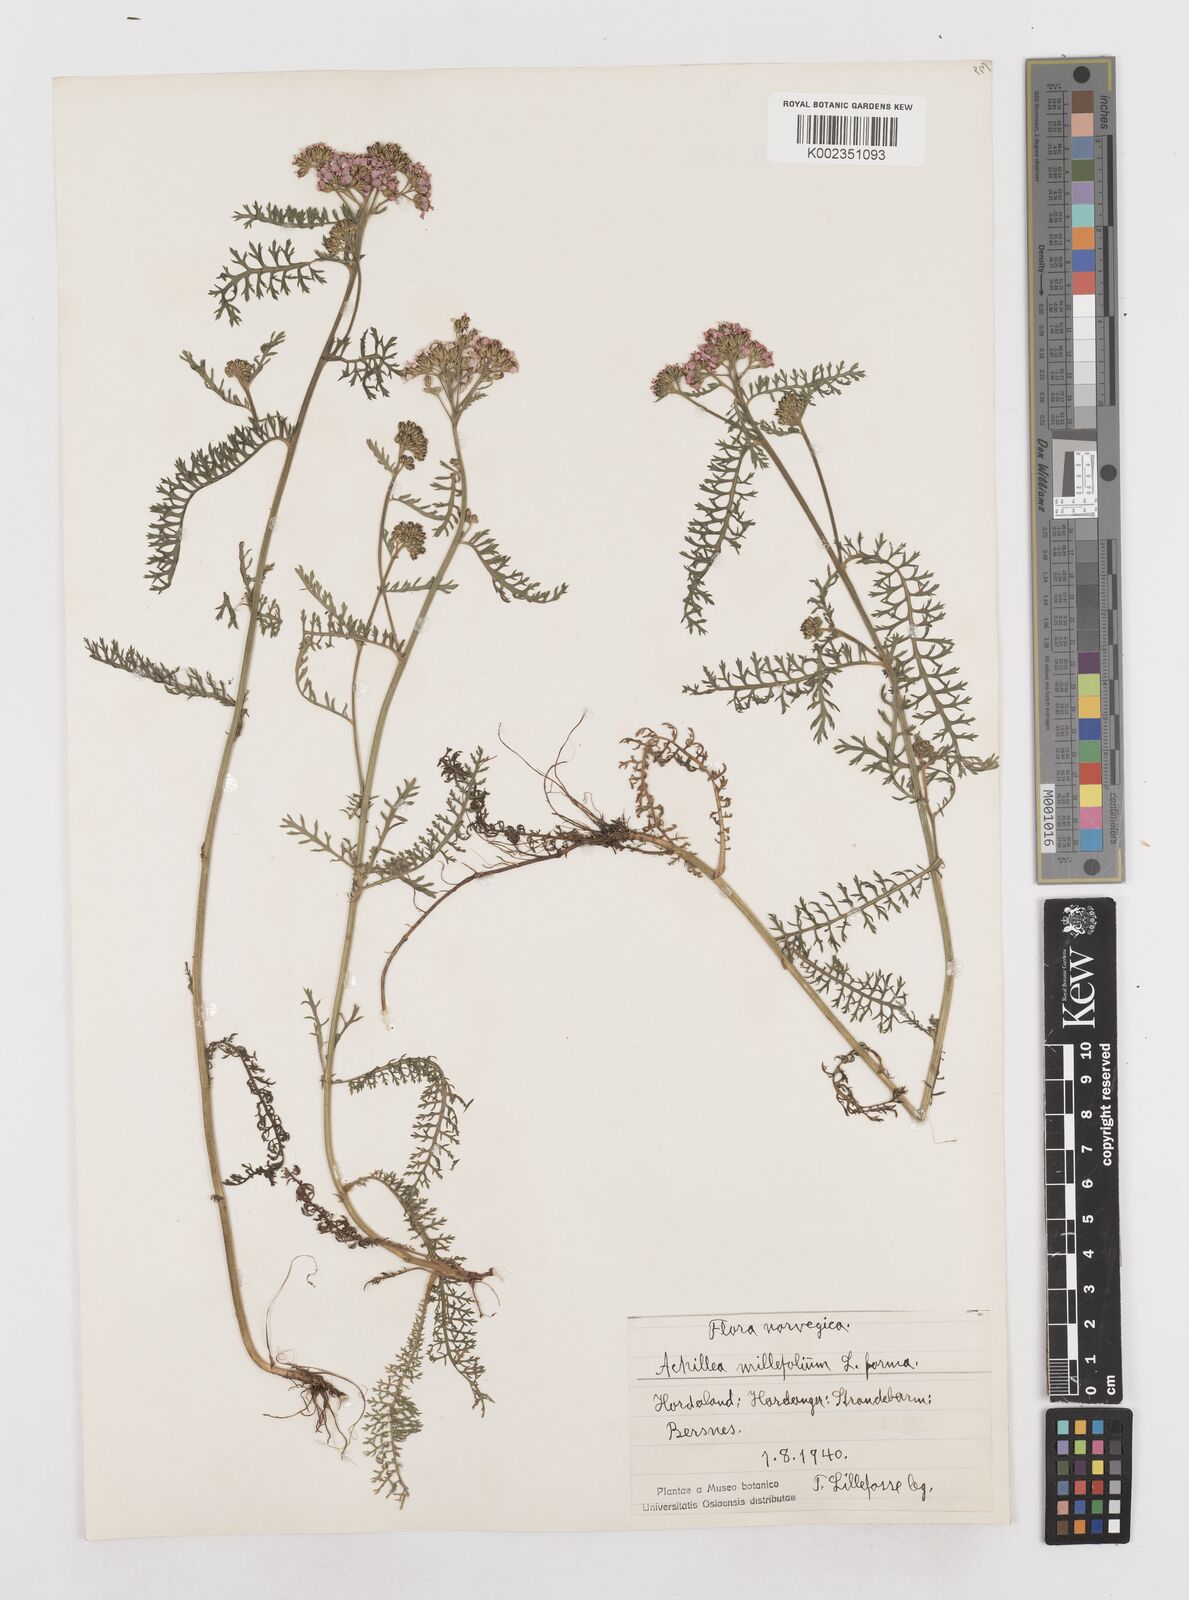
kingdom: Plantae
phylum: Tracheophyta
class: Magnoliopsida
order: Asterales
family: Asteraceae
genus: Achillea
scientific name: Achillea millefolium
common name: Yarrow
